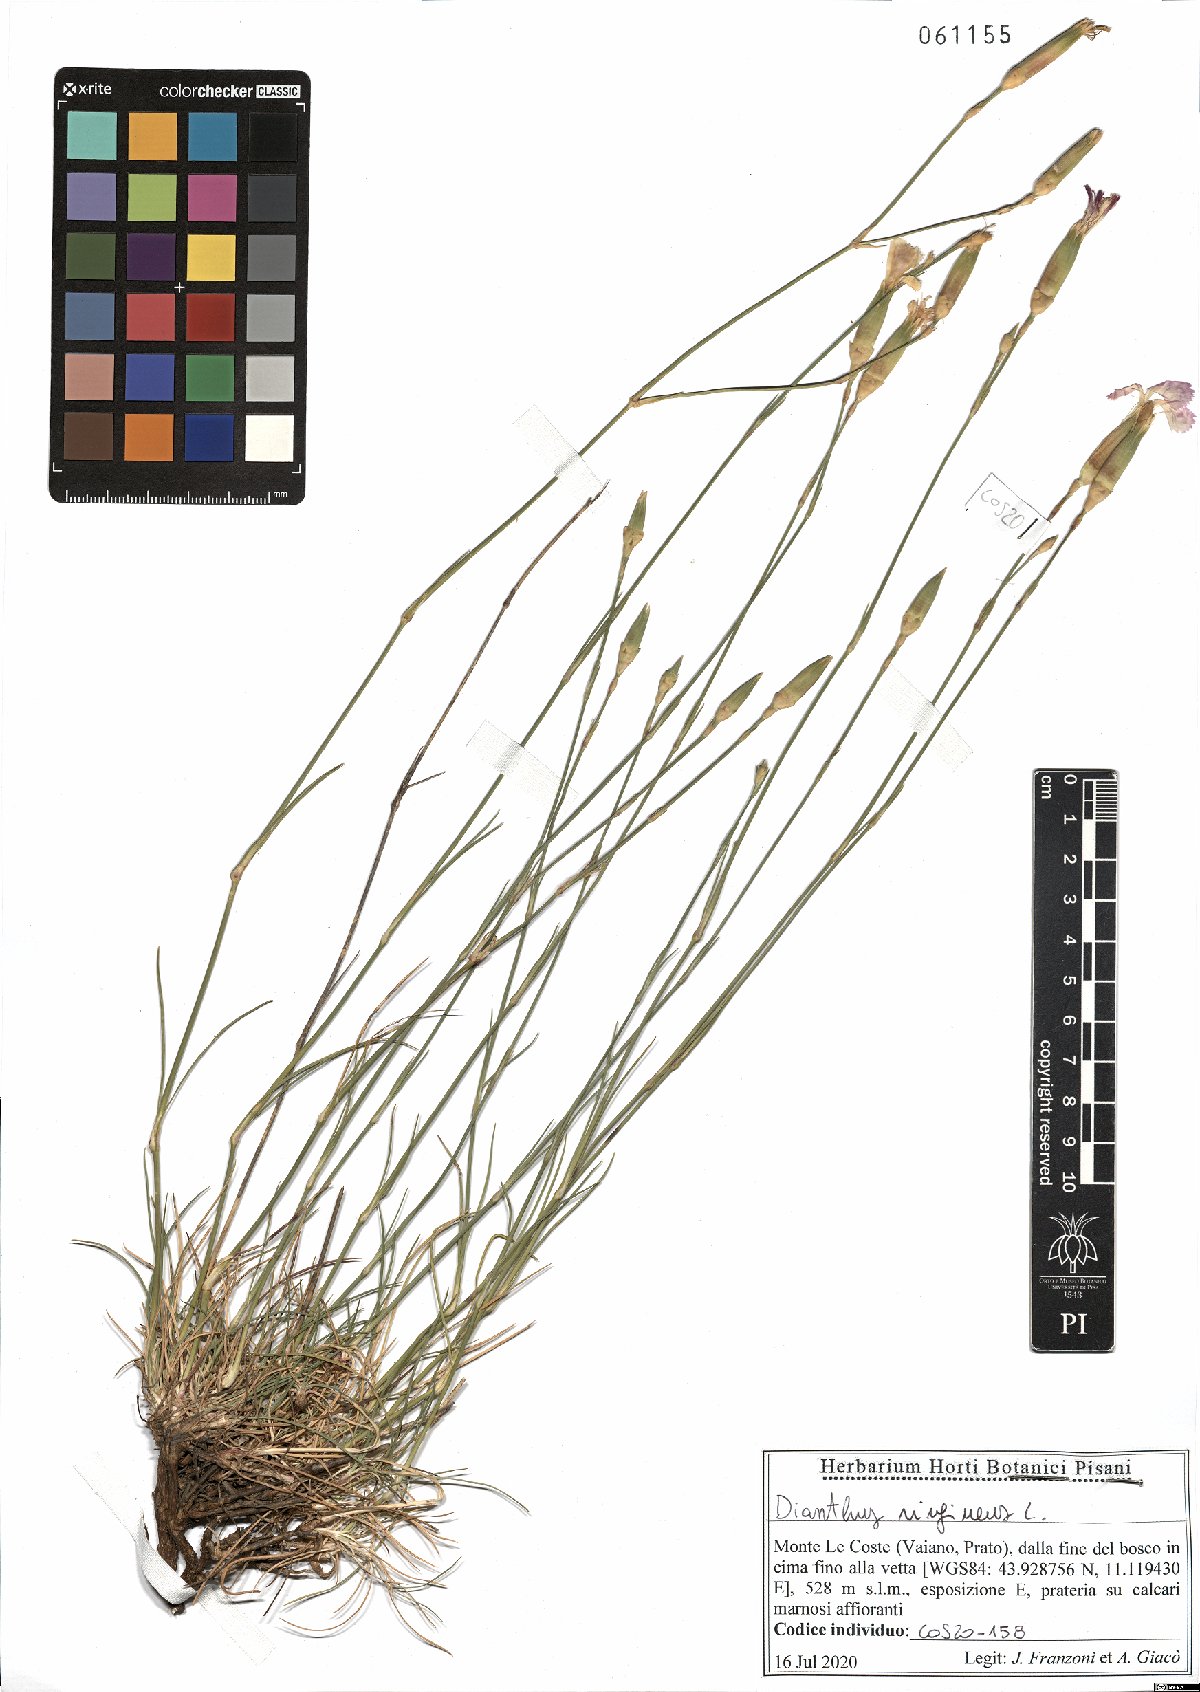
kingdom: Plantae
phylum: Tracheophyta
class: Magnoliopsida
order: Caryophyllales
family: Caryophyllaceae
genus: Dianthus
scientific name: Dianthus virgineus
